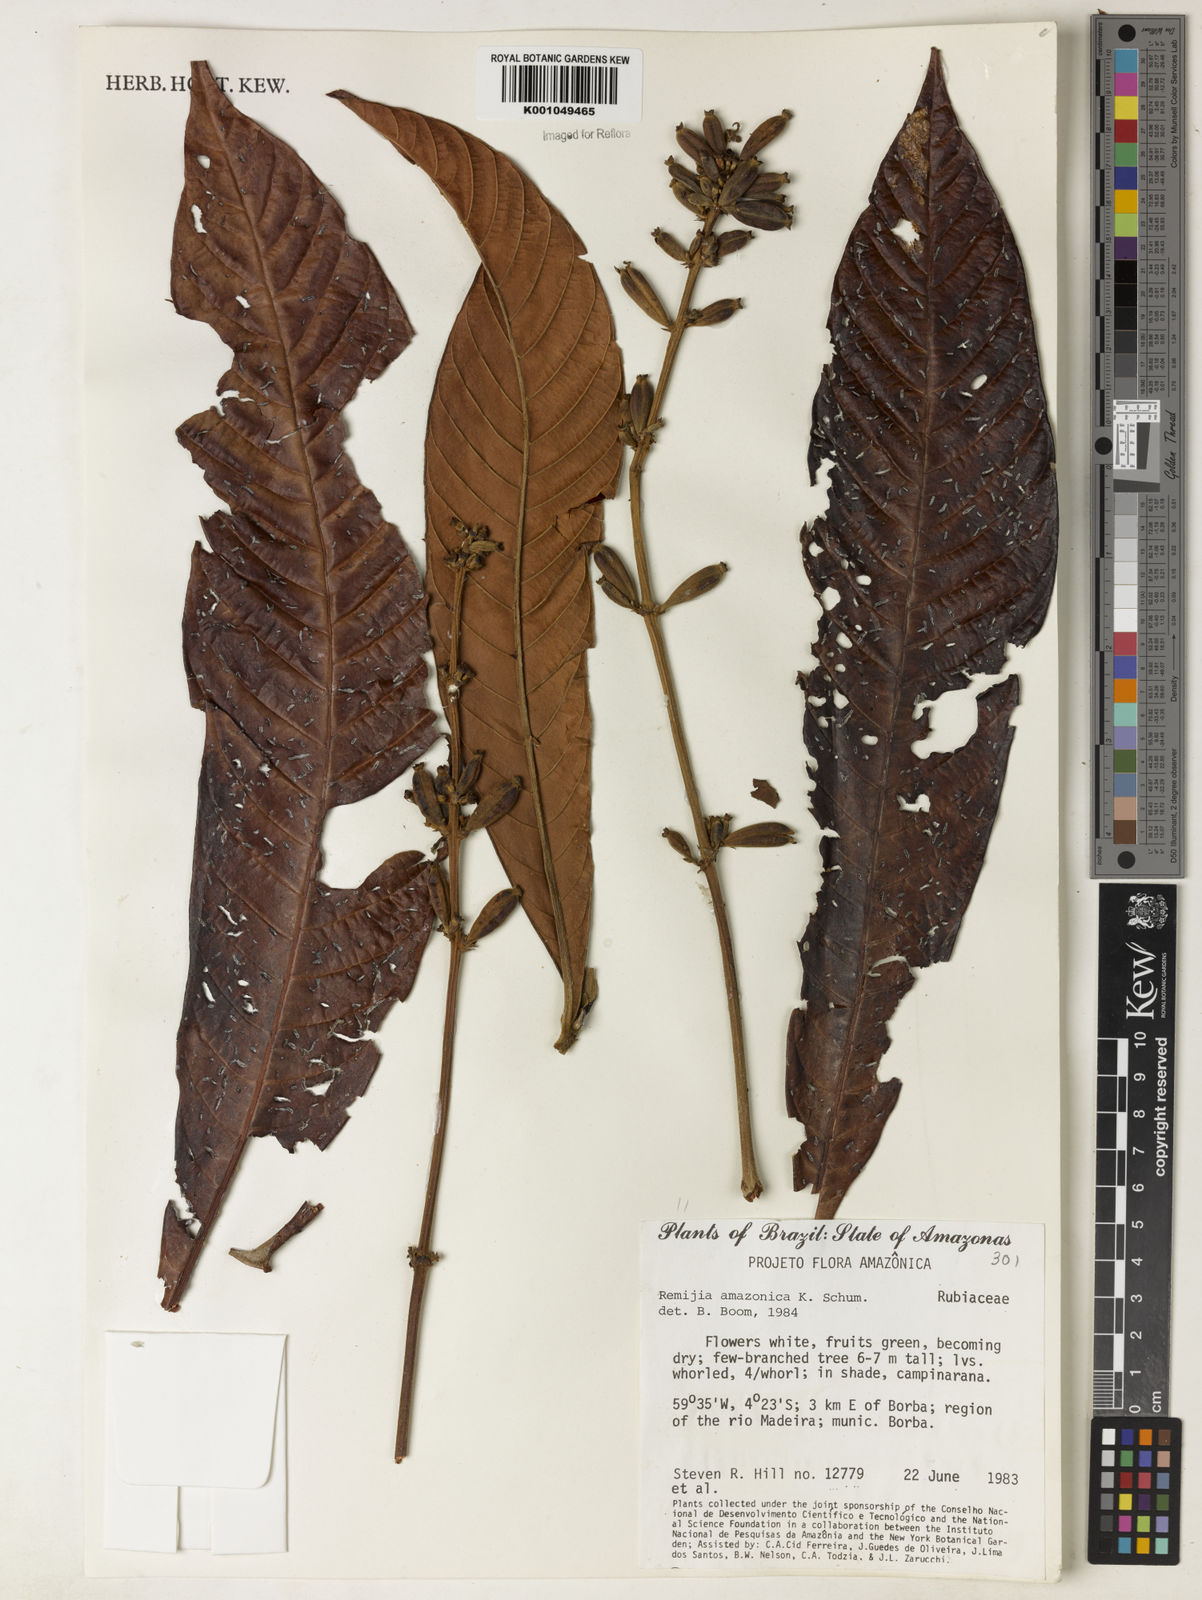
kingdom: Plantae
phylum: Tracheophyta
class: Magnoliopsida
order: Gentianales
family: Rubiaceae
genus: Remijia
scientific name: Remijia amazonica
